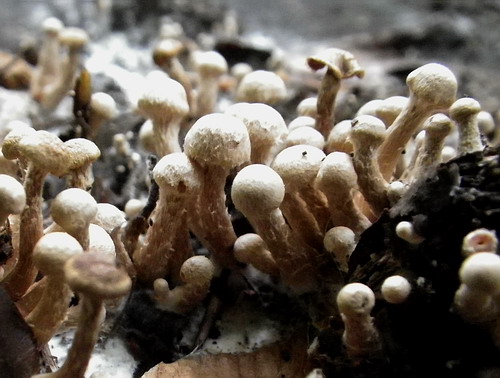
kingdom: Fungi
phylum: Basidiomycota
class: Agaricomycetes
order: Agaricales
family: Tubariaceae
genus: Tubaria
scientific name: Tubaria conspersa
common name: bleg fnughat
